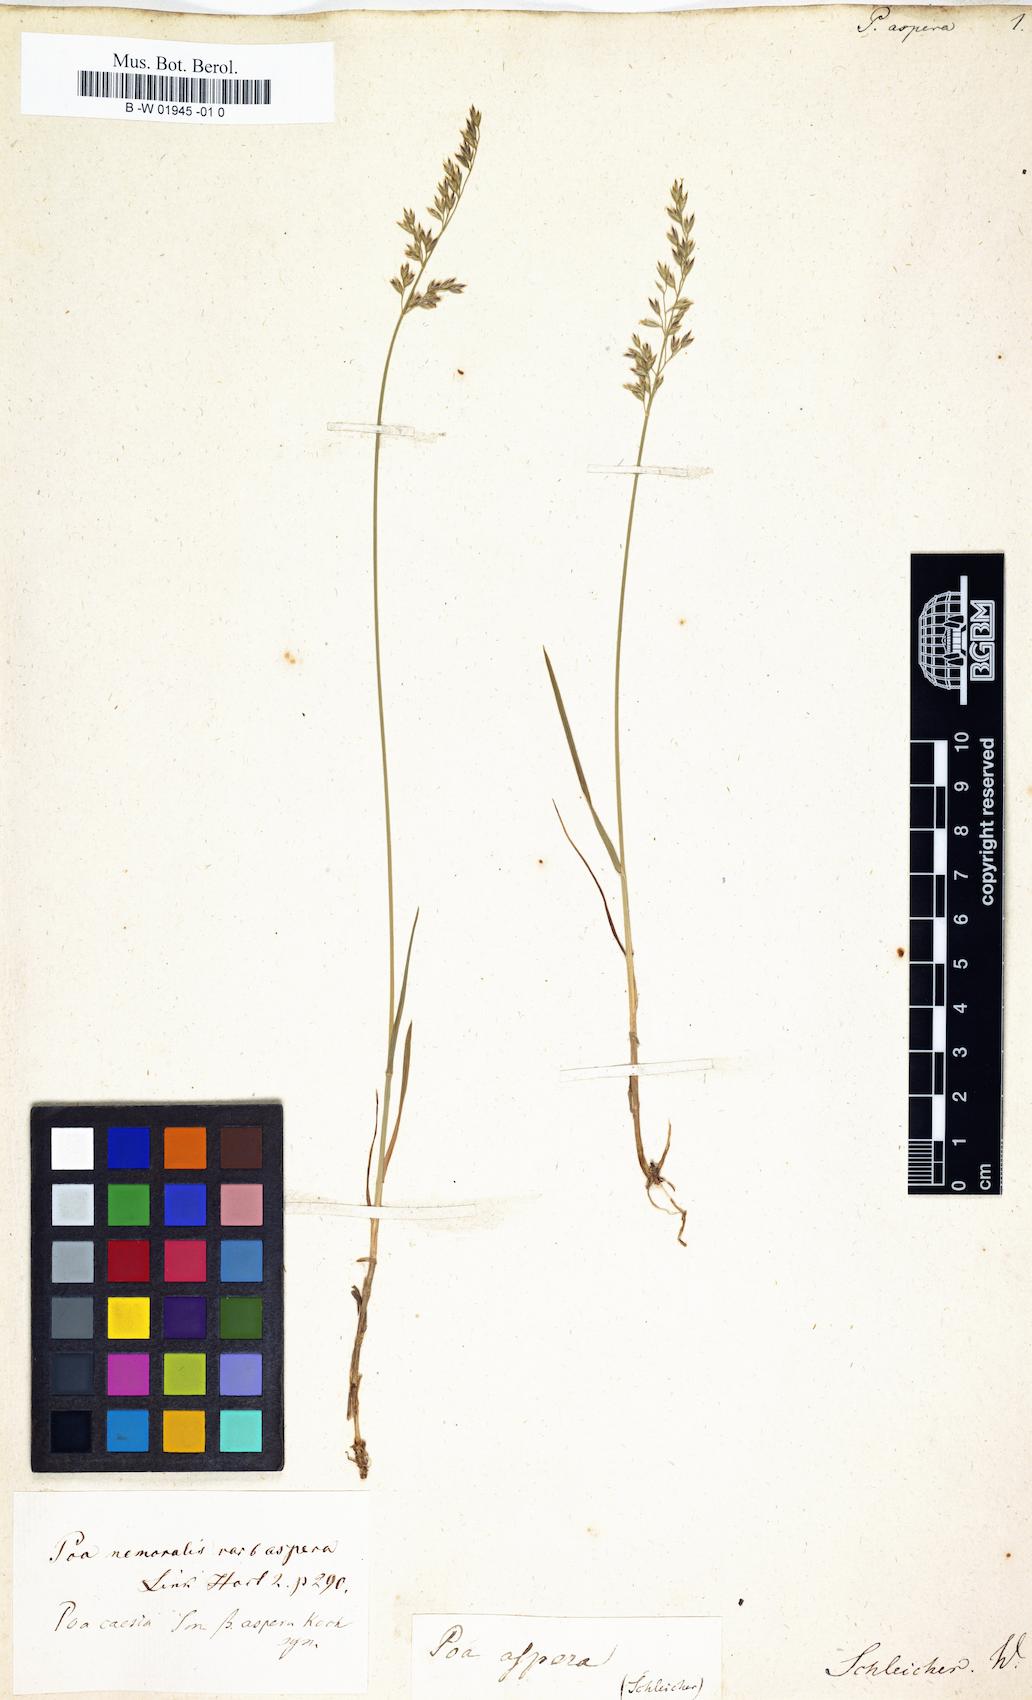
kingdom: Plantae
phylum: Tracheophyta
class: Liliopsida
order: Poales
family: Poaceae
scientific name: Poaceae
